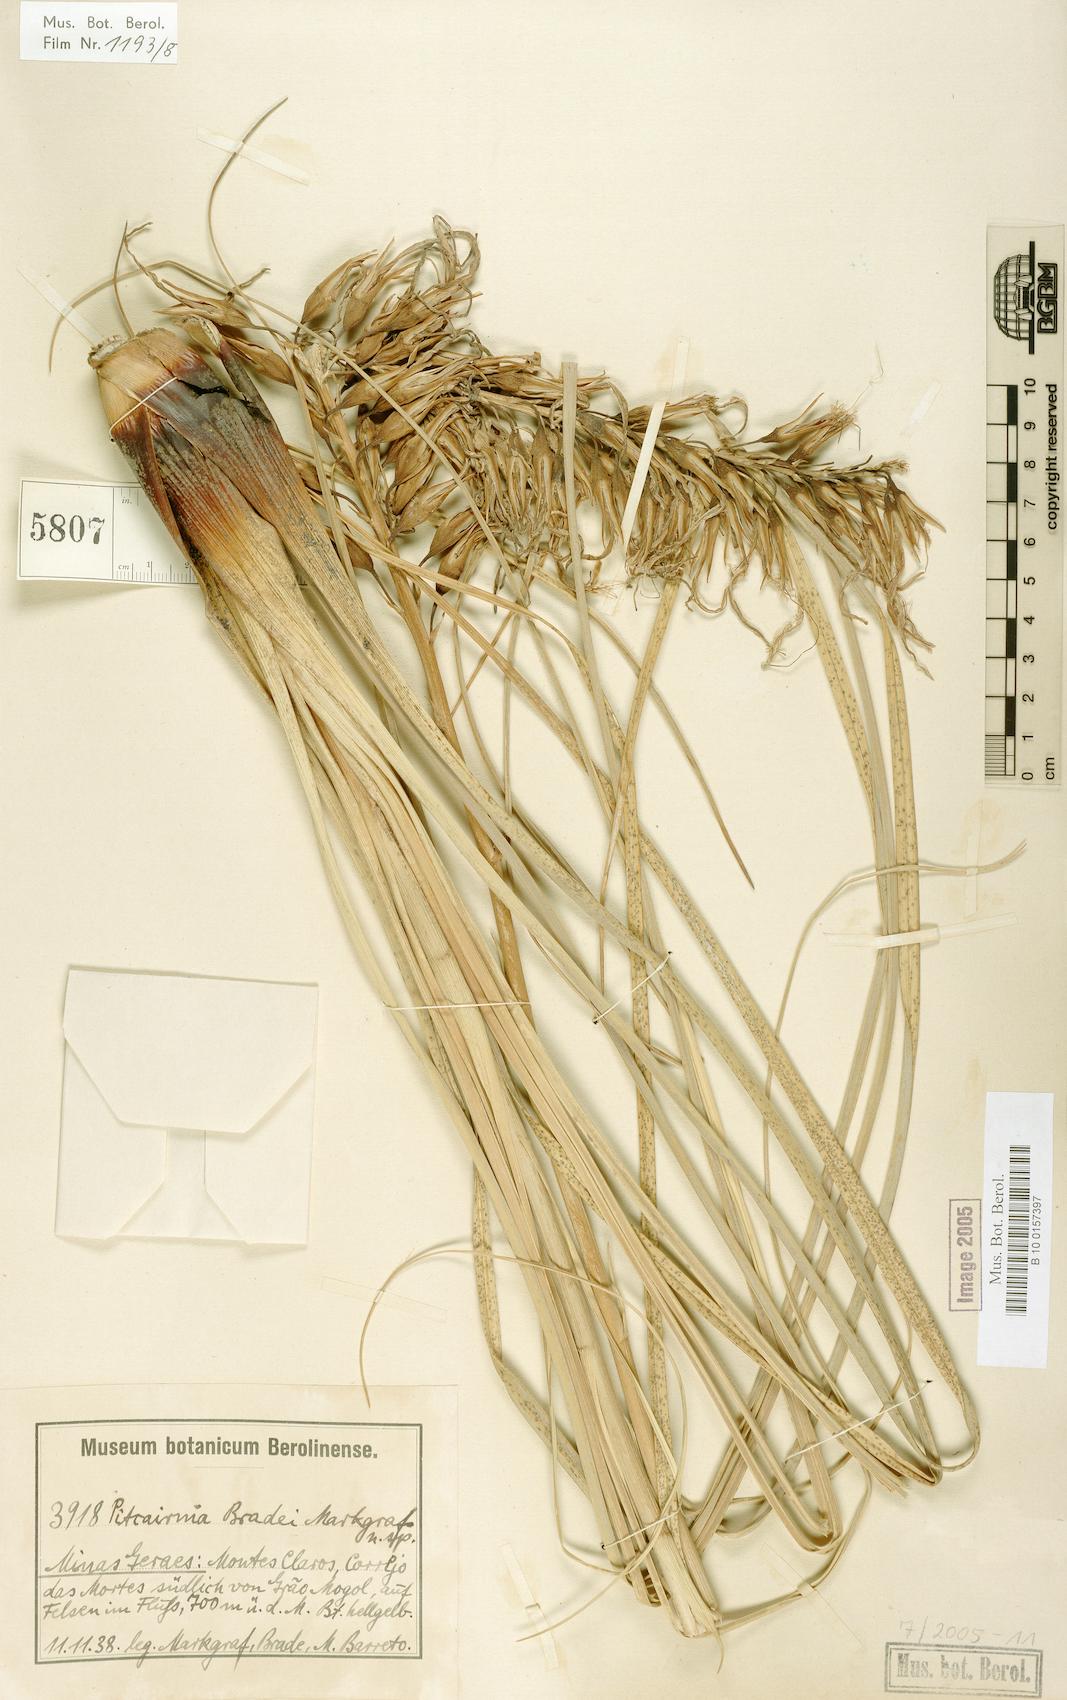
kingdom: Plantae
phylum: Tracheophyta
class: Liliopsida
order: Poales
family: Bromeliaceae
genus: Pitcairnia
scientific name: Pitcairnia bradei
